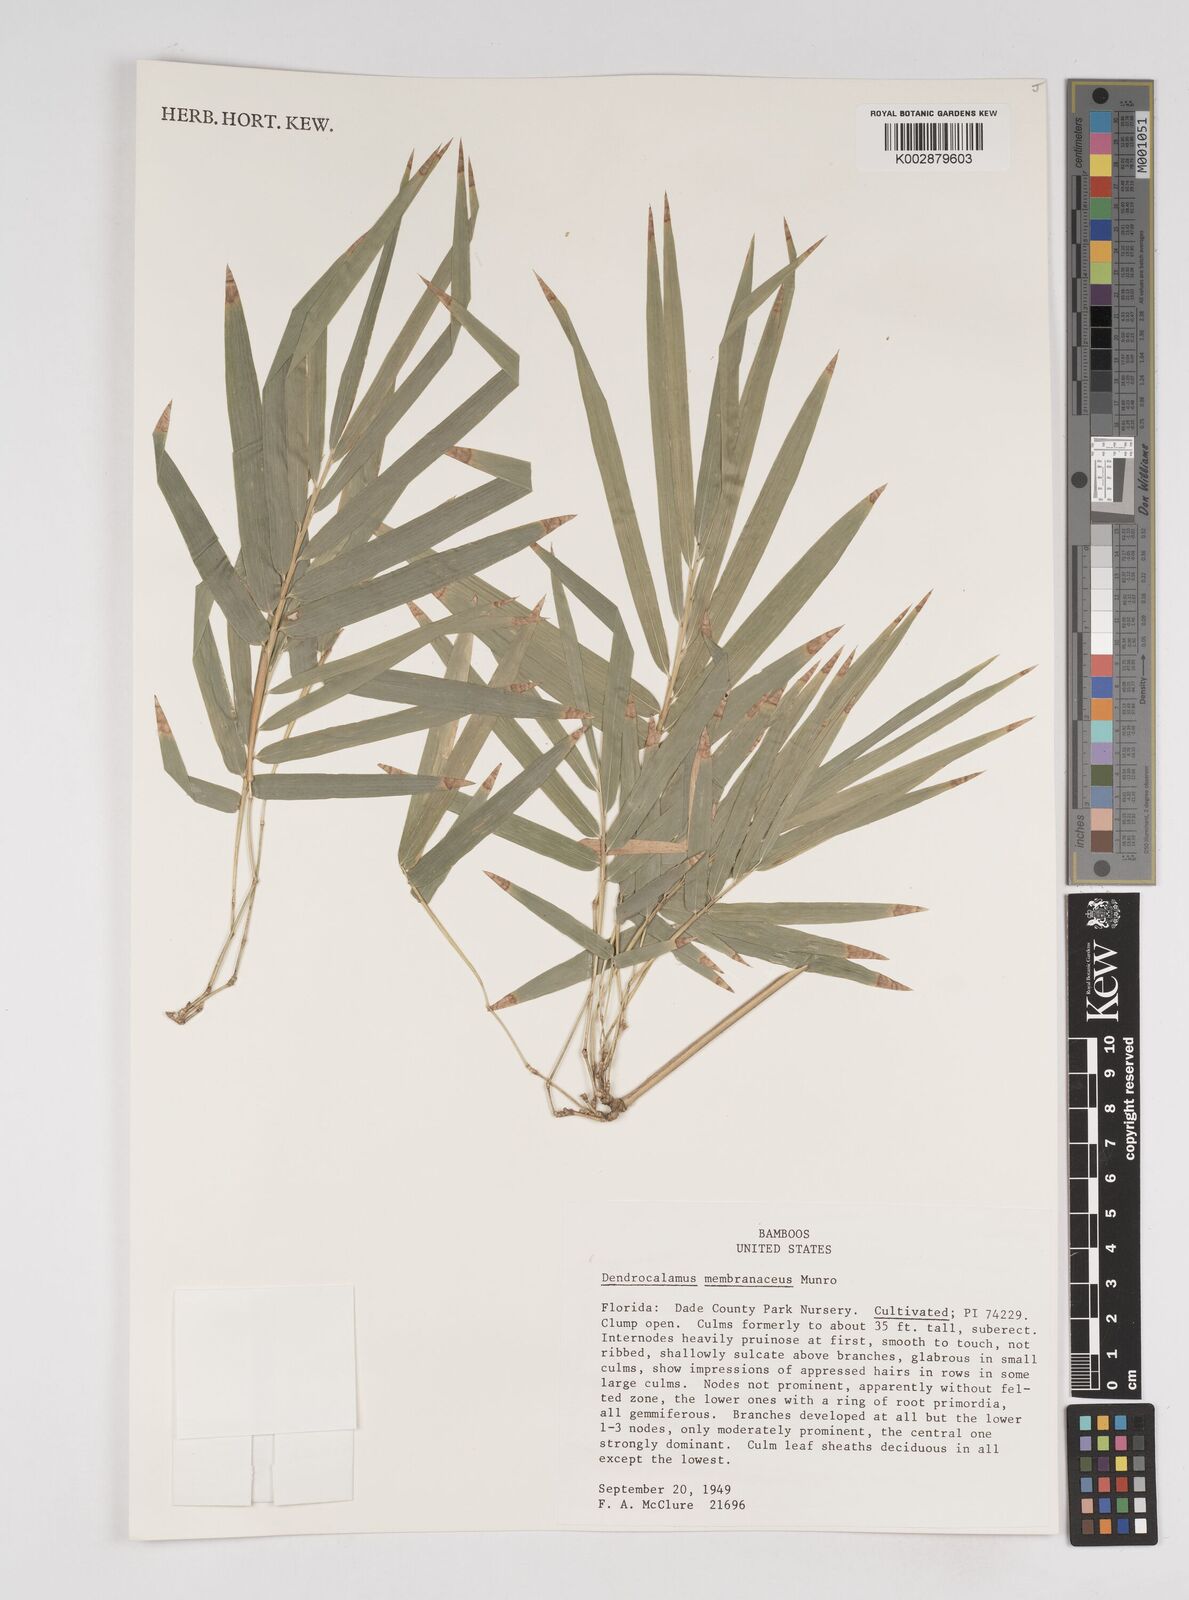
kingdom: Plantae
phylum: Tracheophyta
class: Liliopsida
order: Poales
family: Poaceae
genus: Dendrocalamus
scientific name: Dendrocalamus membranaceus
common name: White bamboo
